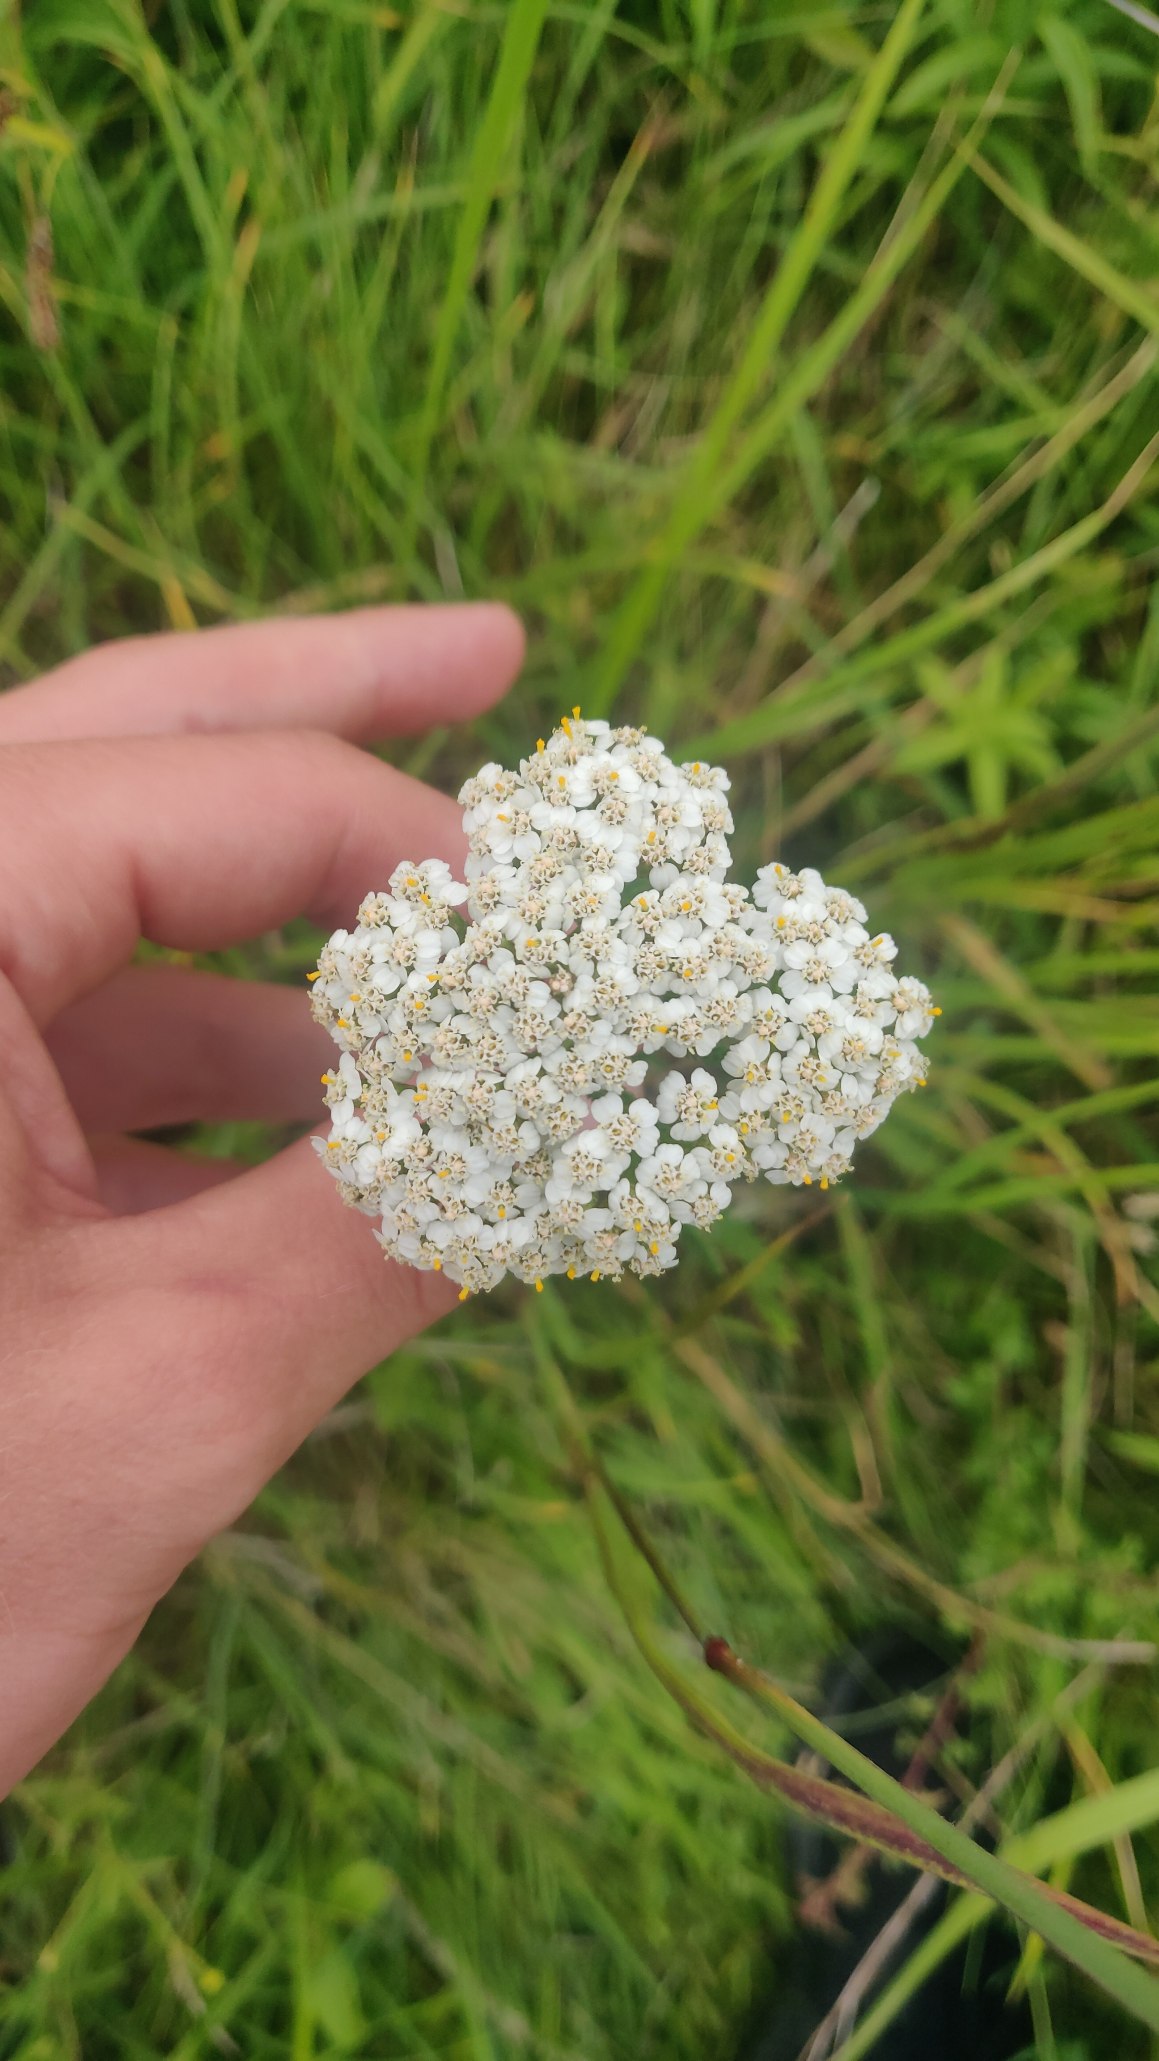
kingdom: Plantae
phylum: Tracheophyta
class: Magnoliopsida
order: Asterales
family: Asteraceae
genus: Achillea
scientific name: Achillea millefolium
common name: Almindelig røllike
